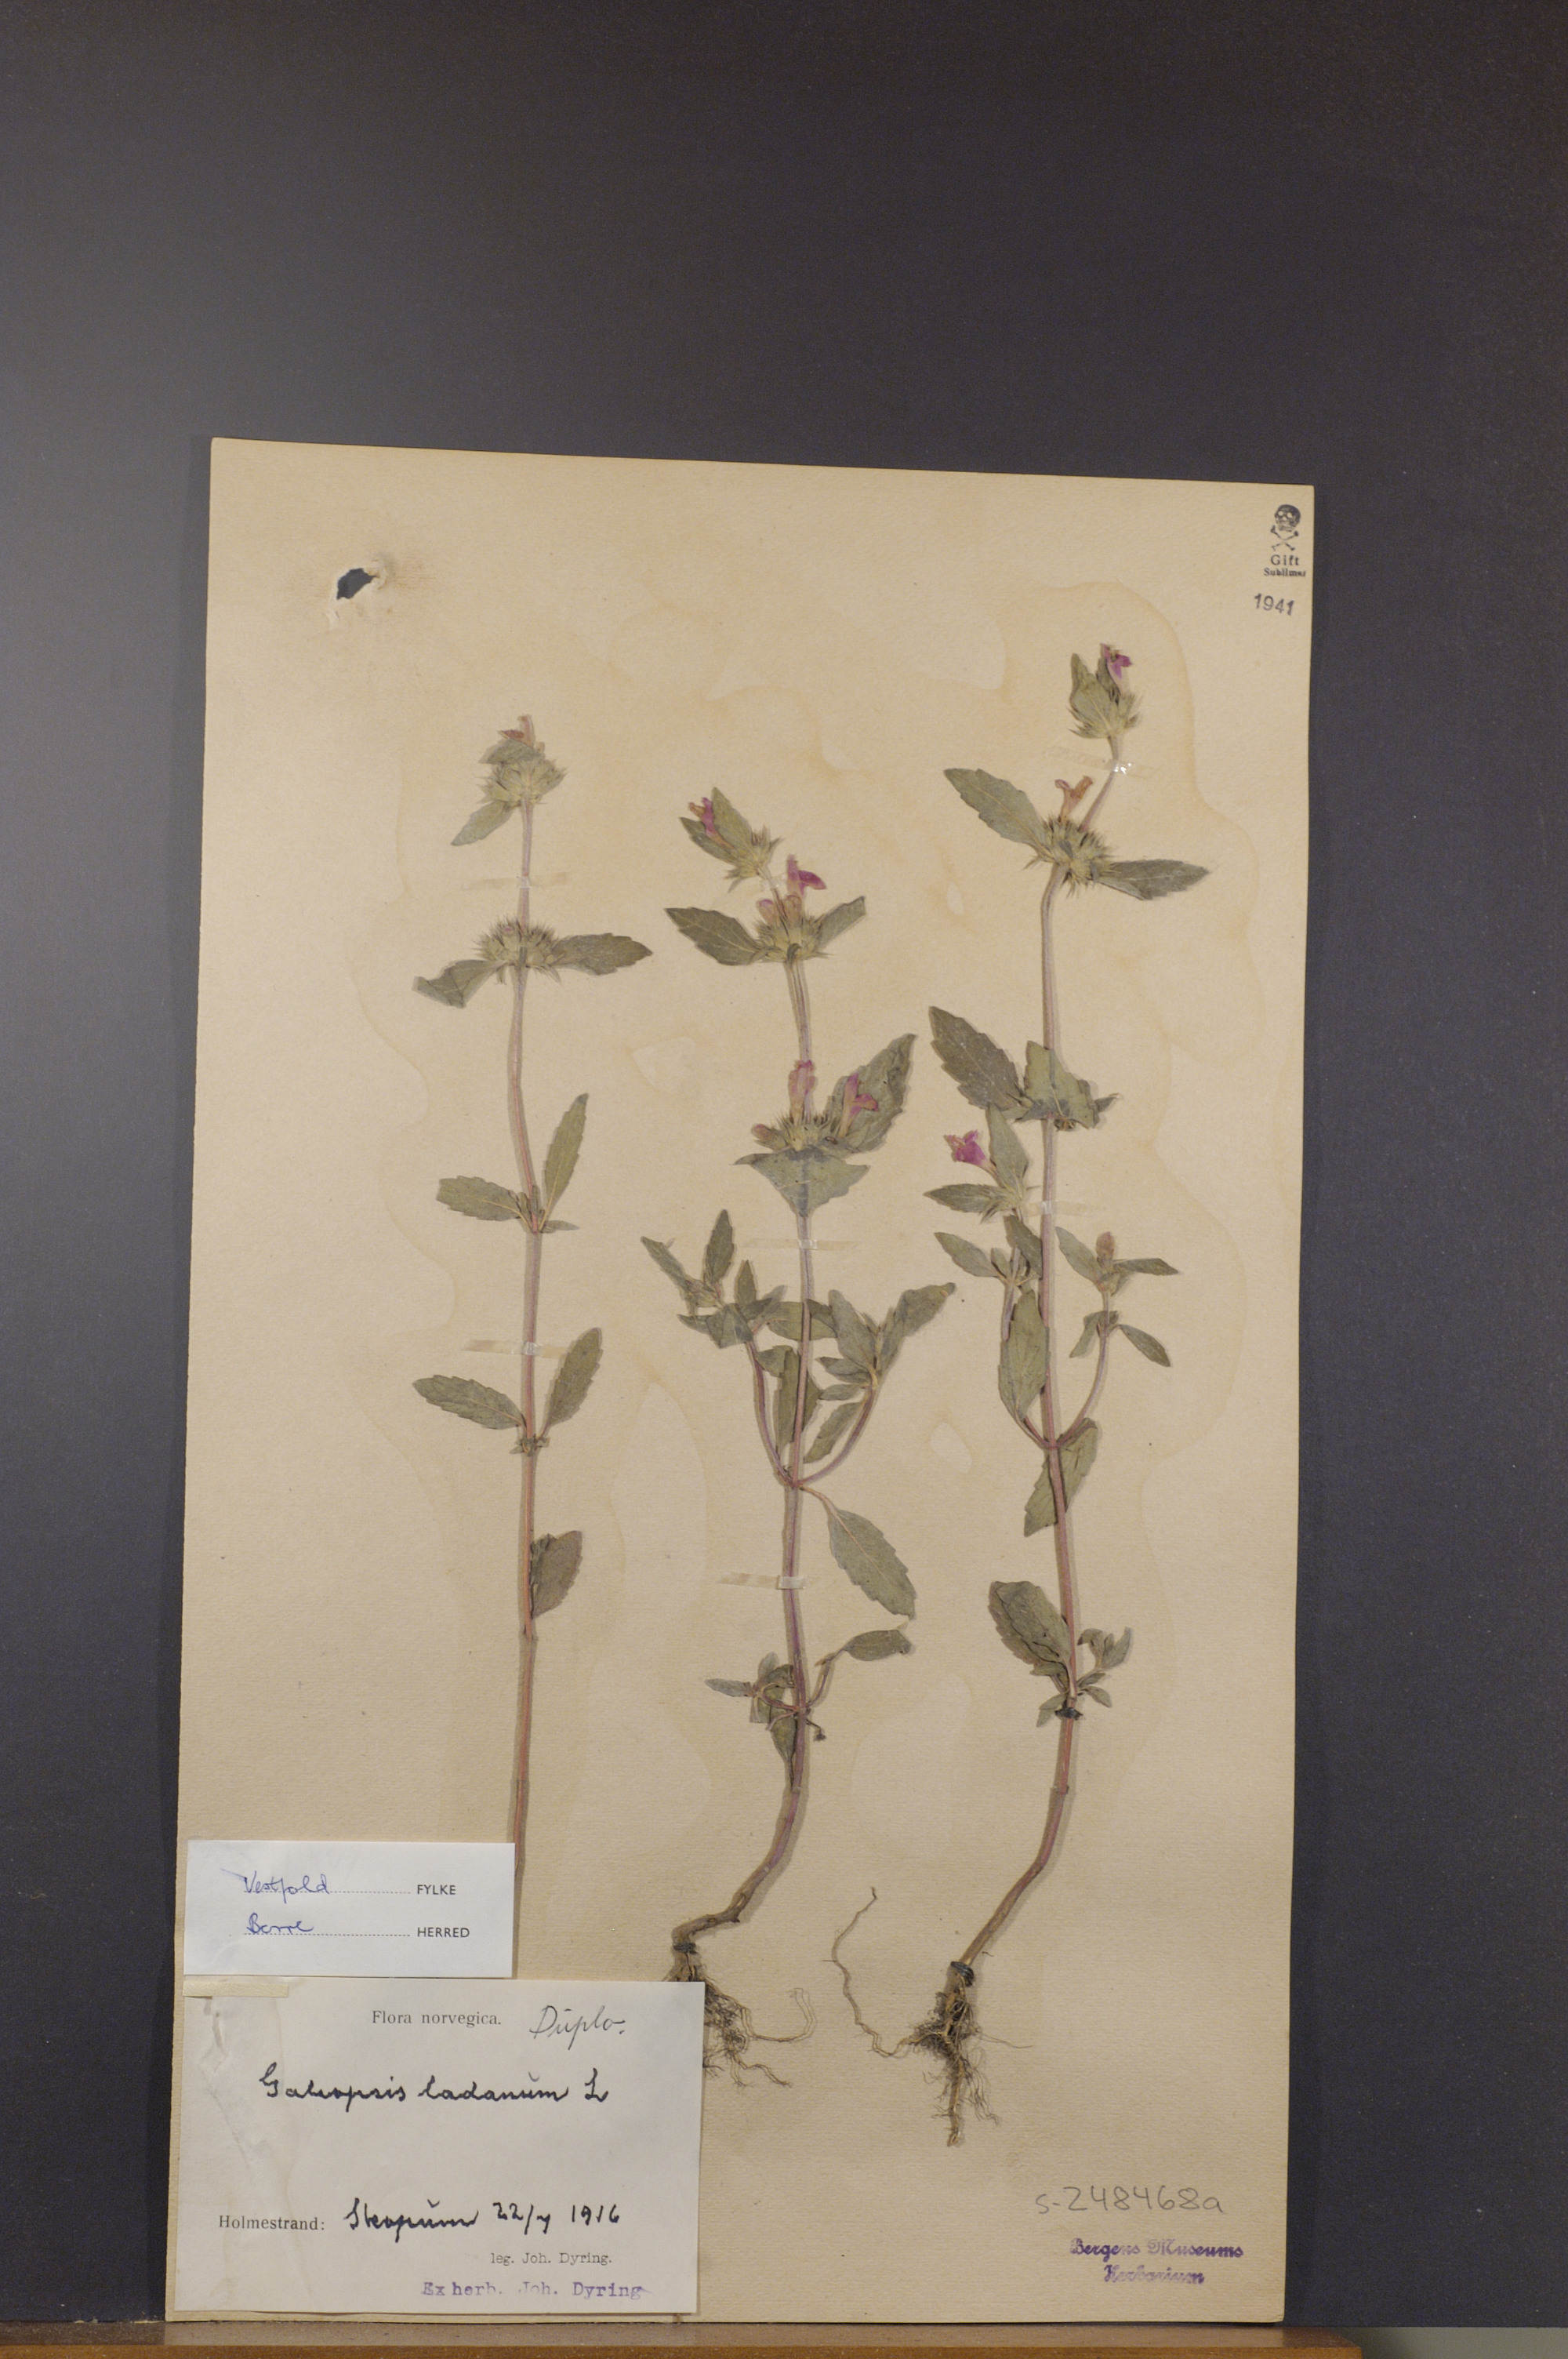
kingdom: Plantae
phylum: Tracheophyta
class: Magnoliopsida
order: Lamiales
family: Lamiaceae
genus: Galeopsis
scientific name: Galeopsis ladanum
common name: Broad-leaved hemp-nettle
